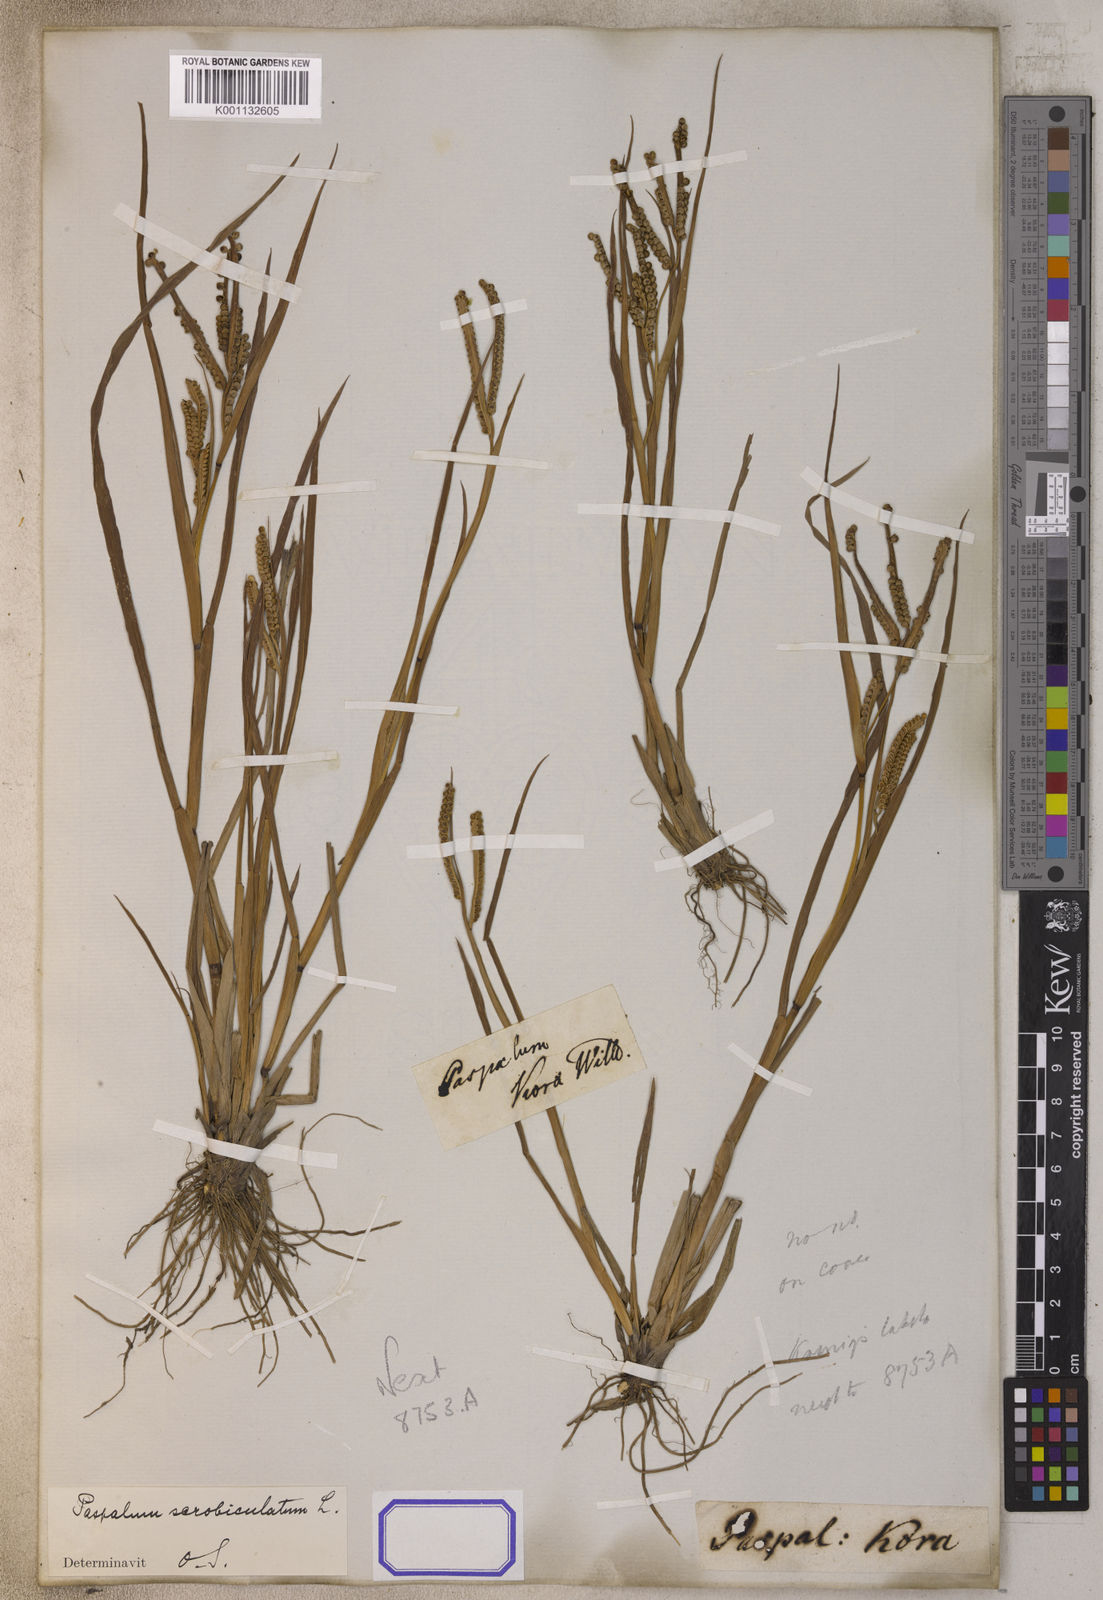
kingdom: Plantae
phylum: Tracheophyta
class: Liliopsida
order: Poales
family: Poaceae
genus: Paspalum
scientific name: Paspalum scrobiculatum
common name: Kodo millet
